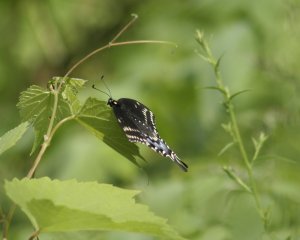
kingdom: Animalia
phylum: Arthropoda
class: Insecta
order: Lepidoptera
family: Papilionidae
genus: Papilio
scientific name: Papilio polyxenes
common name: Black Swallowtail
